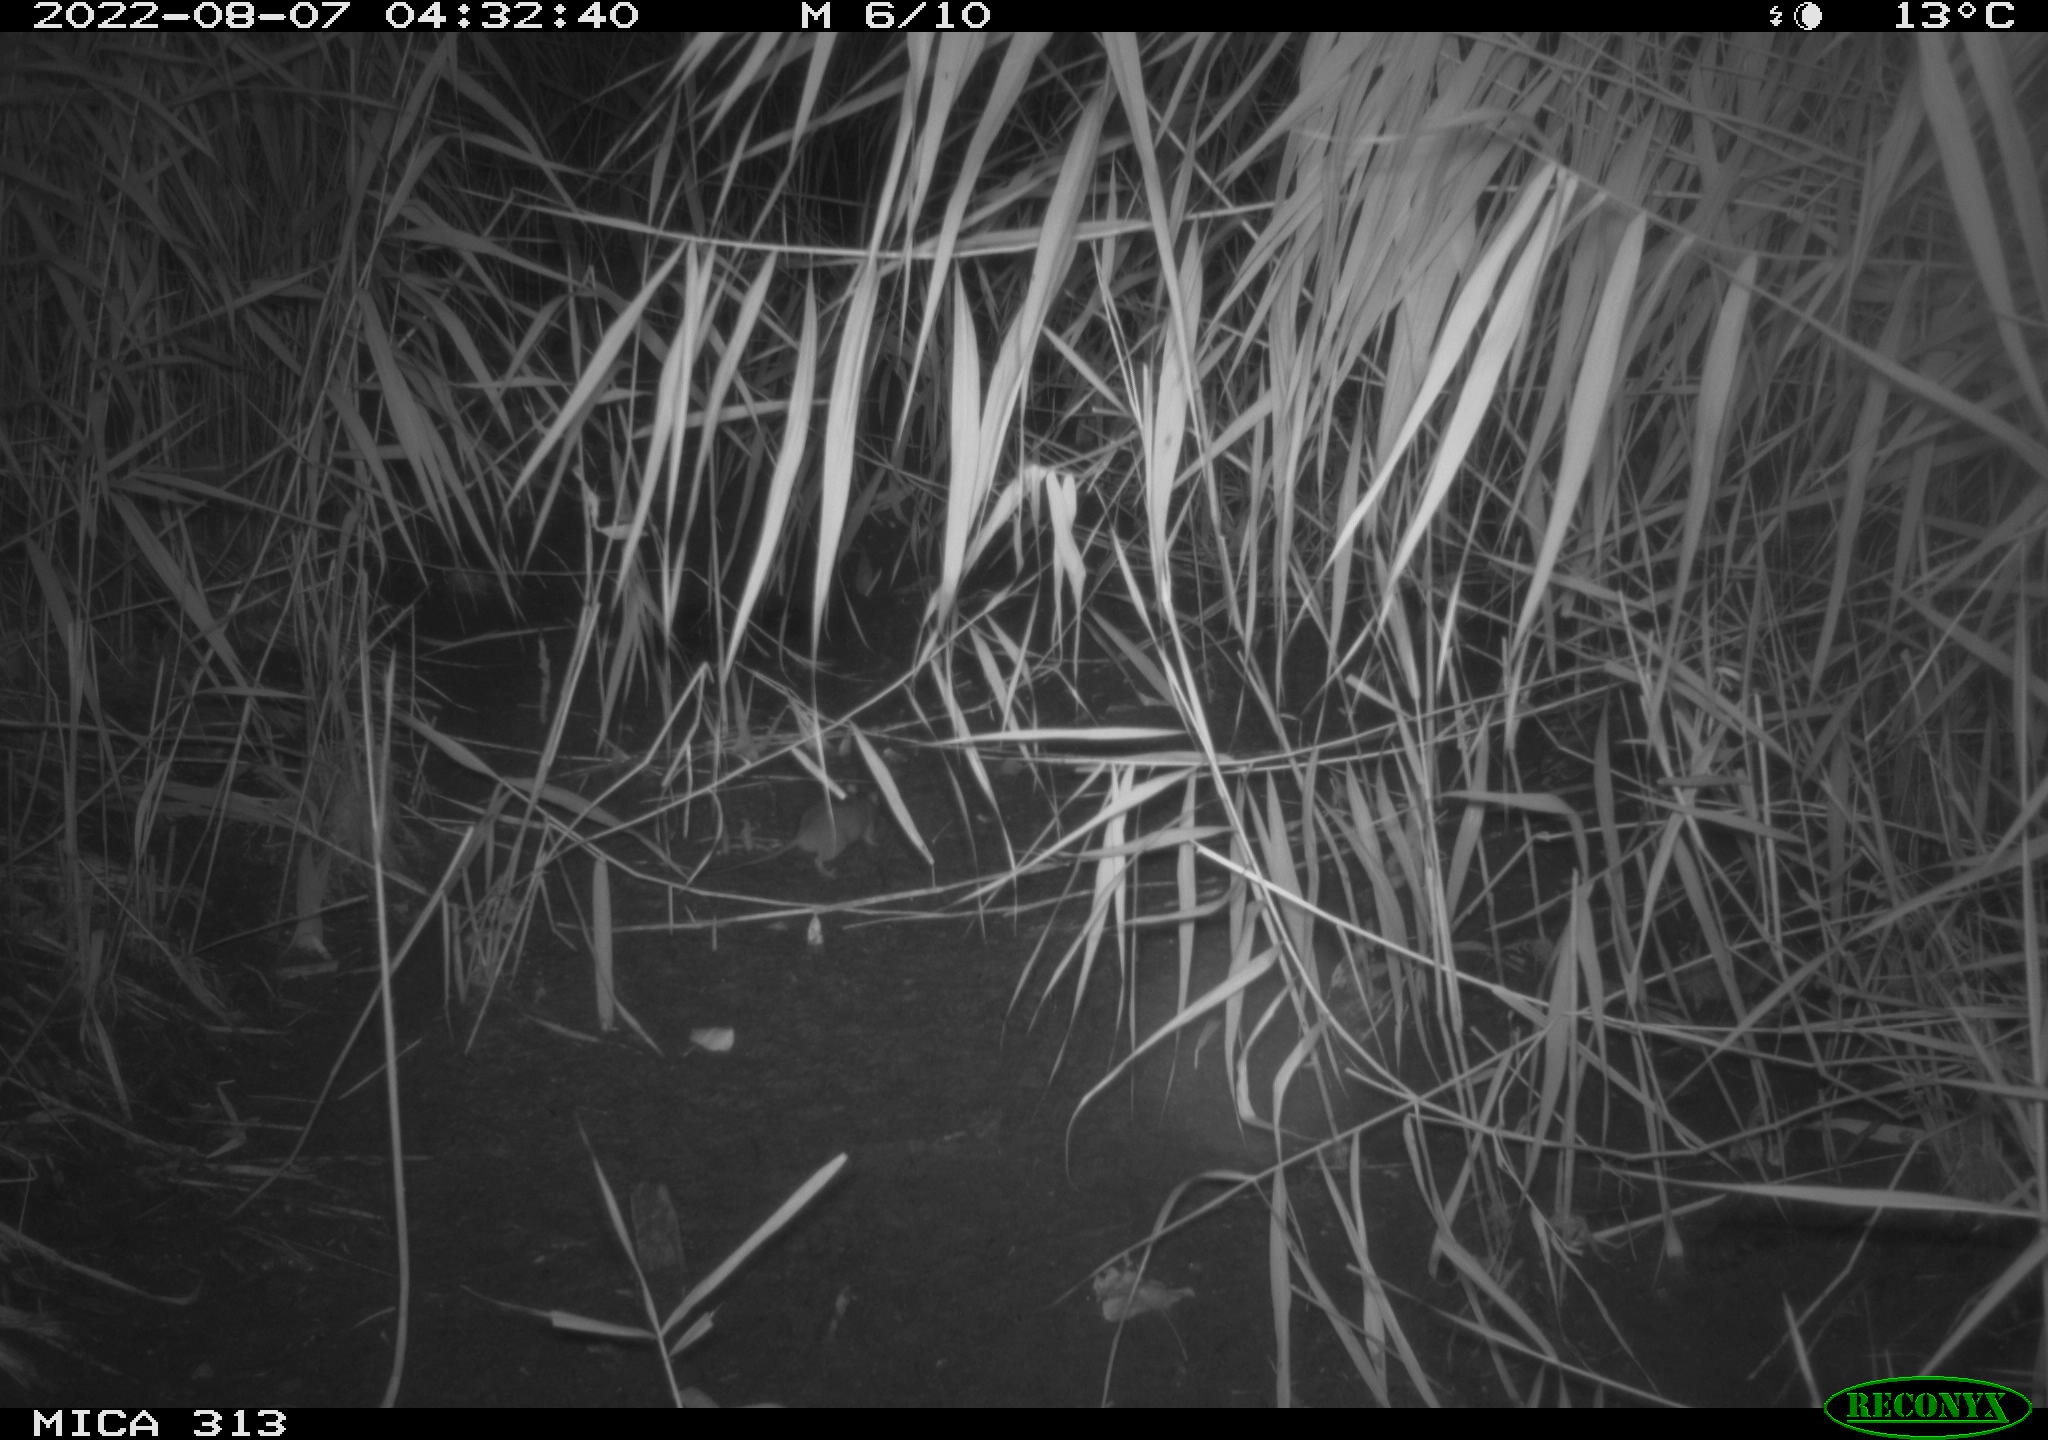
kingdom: Animalia
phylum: Chordata
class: Mammalia
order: Rodentia
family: Muridae
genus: Rattus
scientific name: Rattus norvegicus
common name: Brown rat
